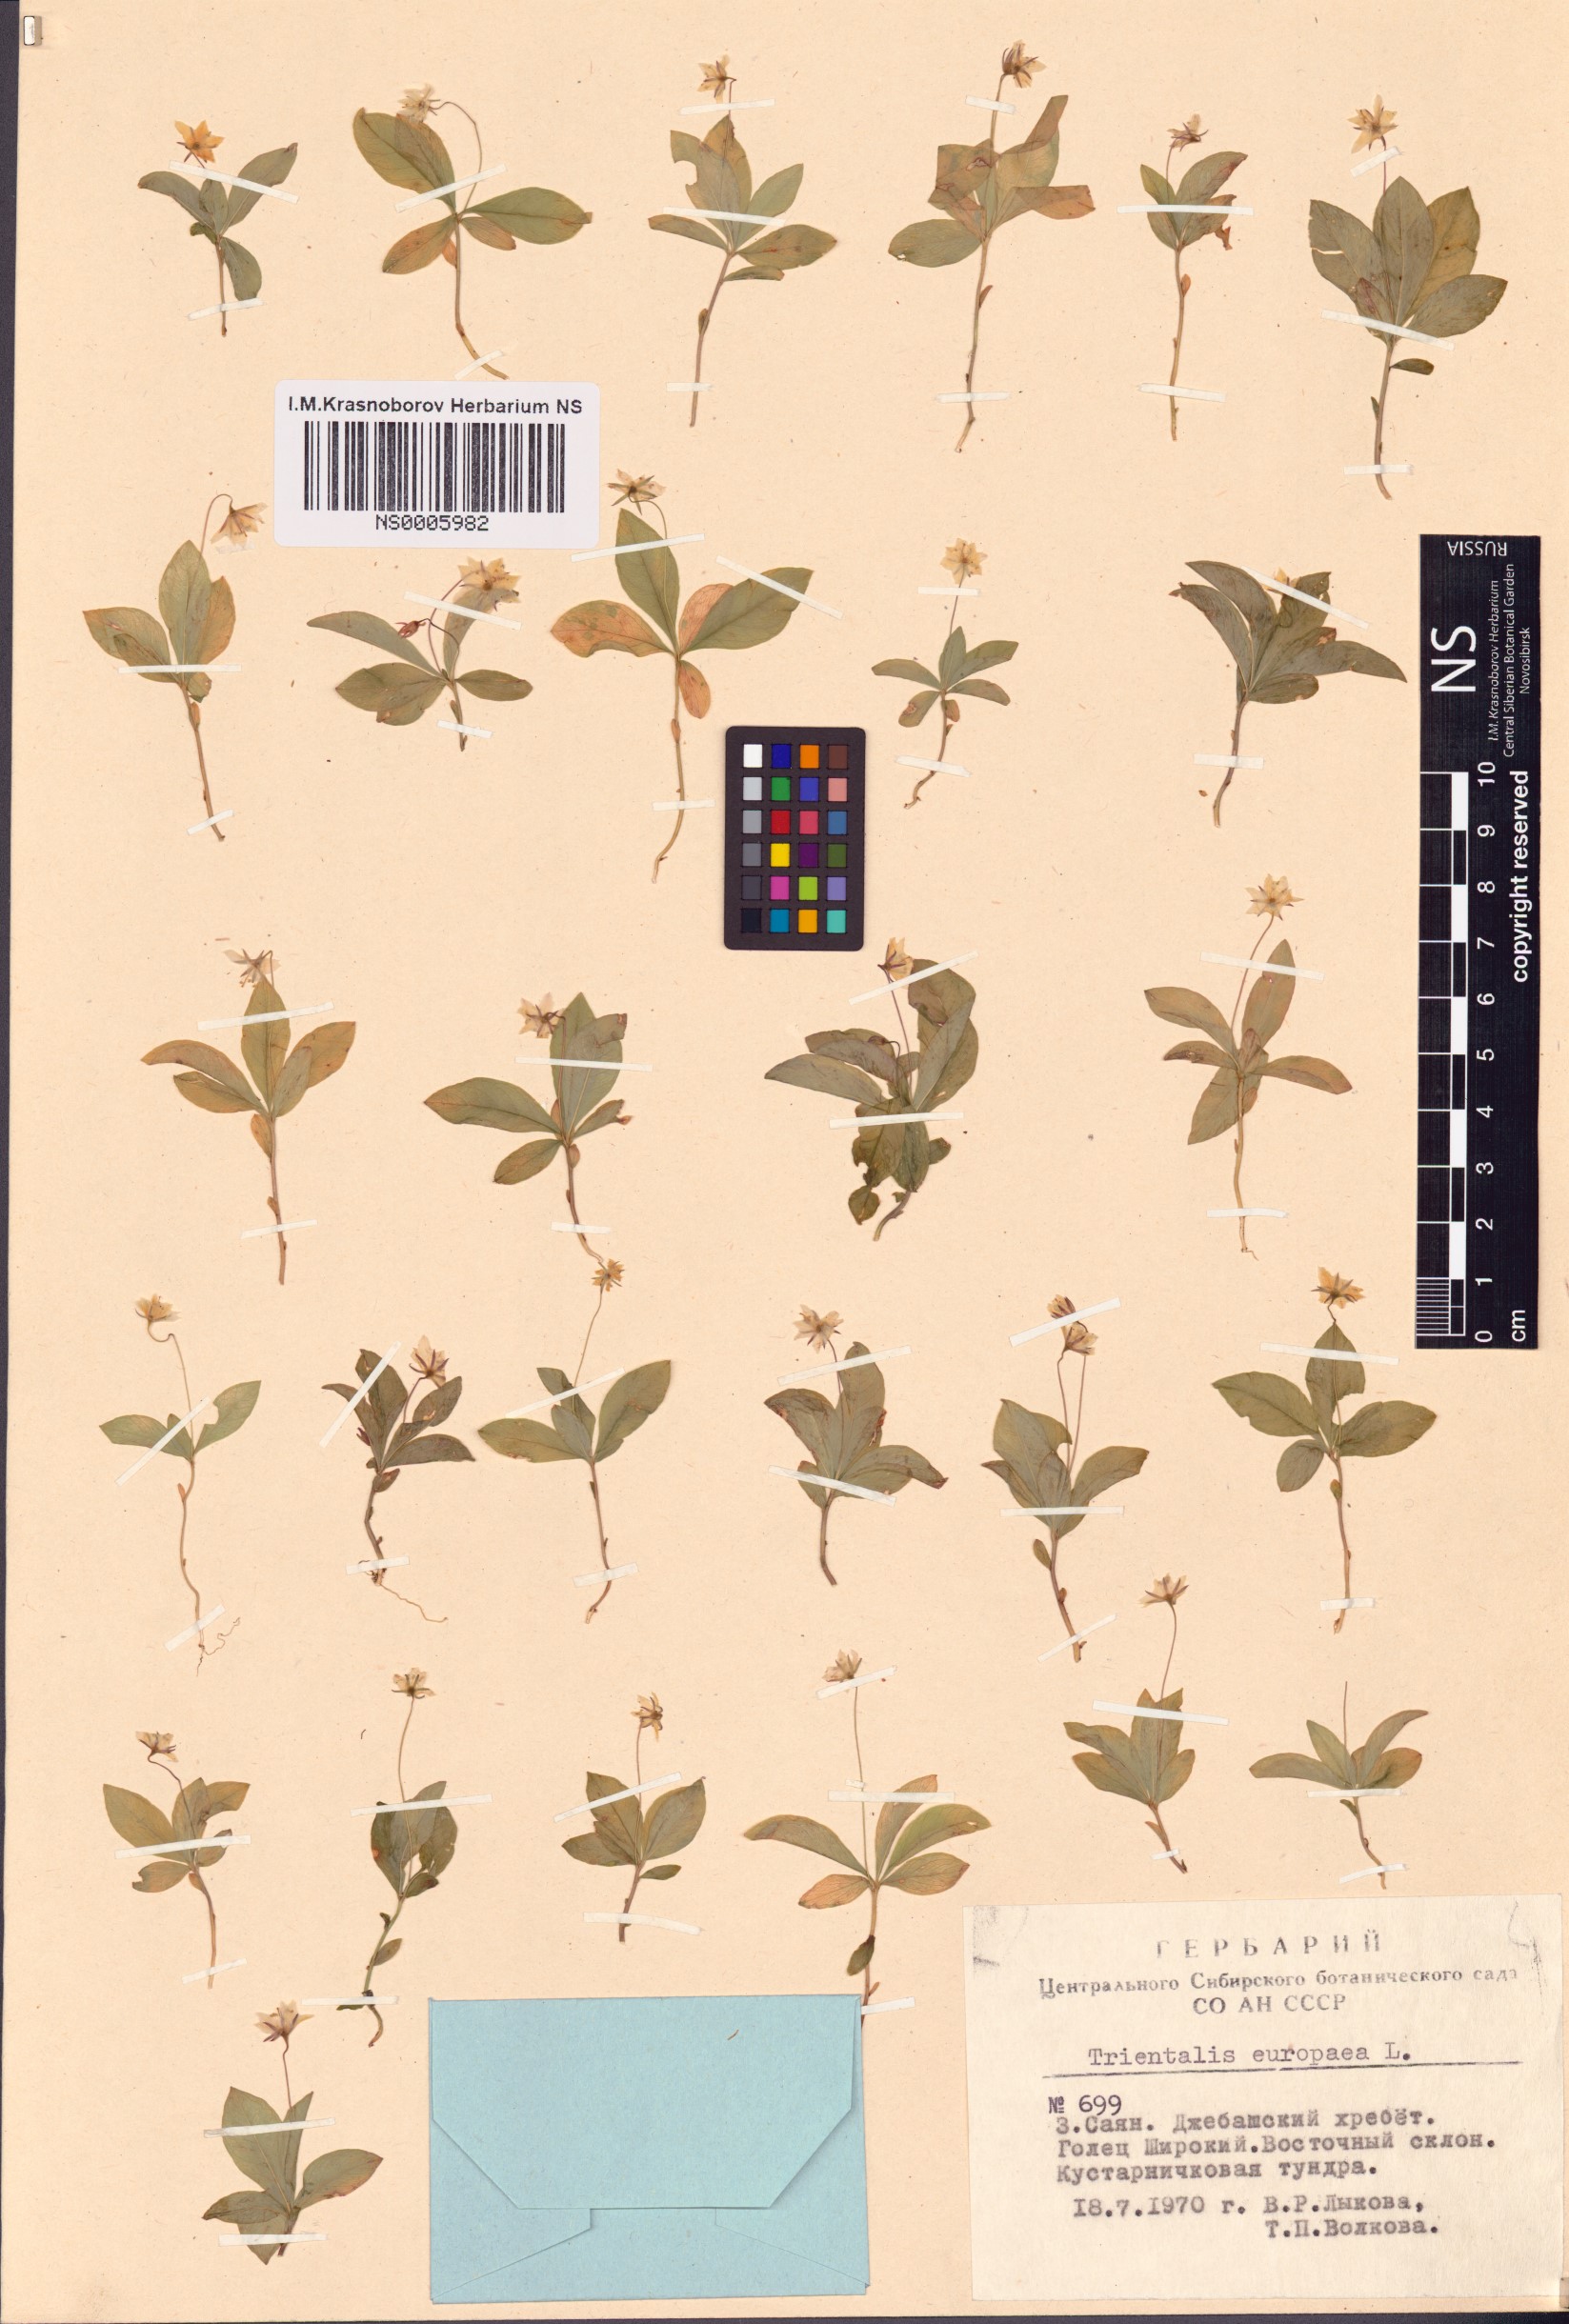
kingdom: Plantae
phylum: Tracheophyta
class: Magnoliopsida
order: Ericales
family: Primulaceae
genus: Lysimachia
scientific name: Lysimachia europaea
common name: Arctic starflower
